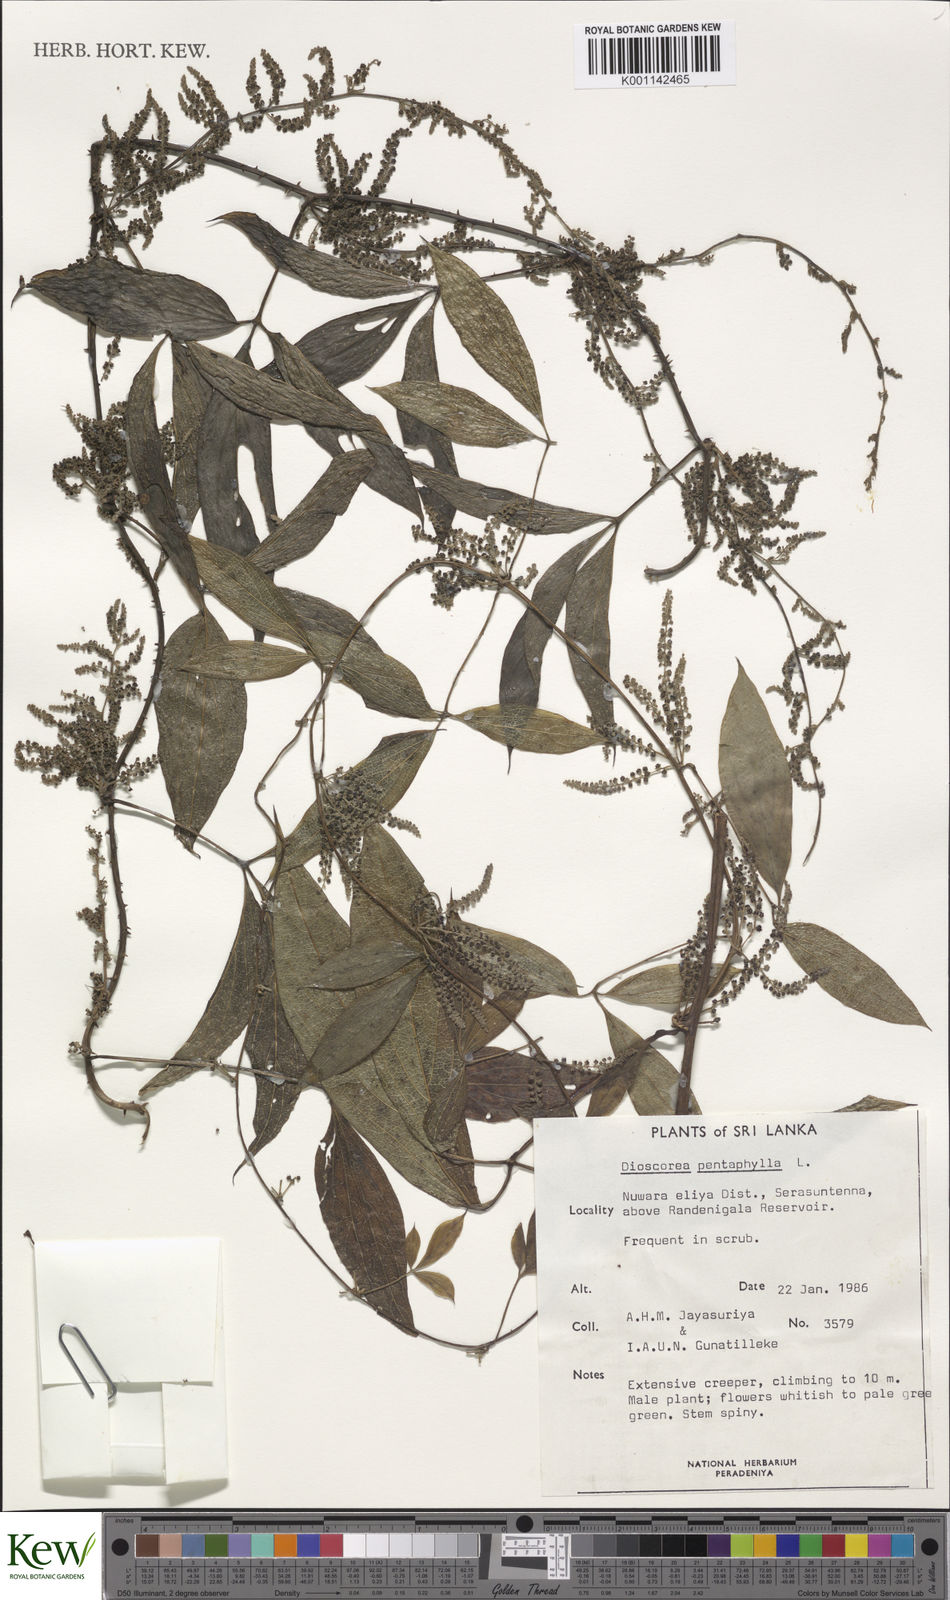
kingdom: Plantae
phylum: Tracheophyta
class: Liliopsida
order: Dioscoreales
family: Dioscoreaceae
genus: Dioscorea
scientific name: Dioscorea pentaphylla
